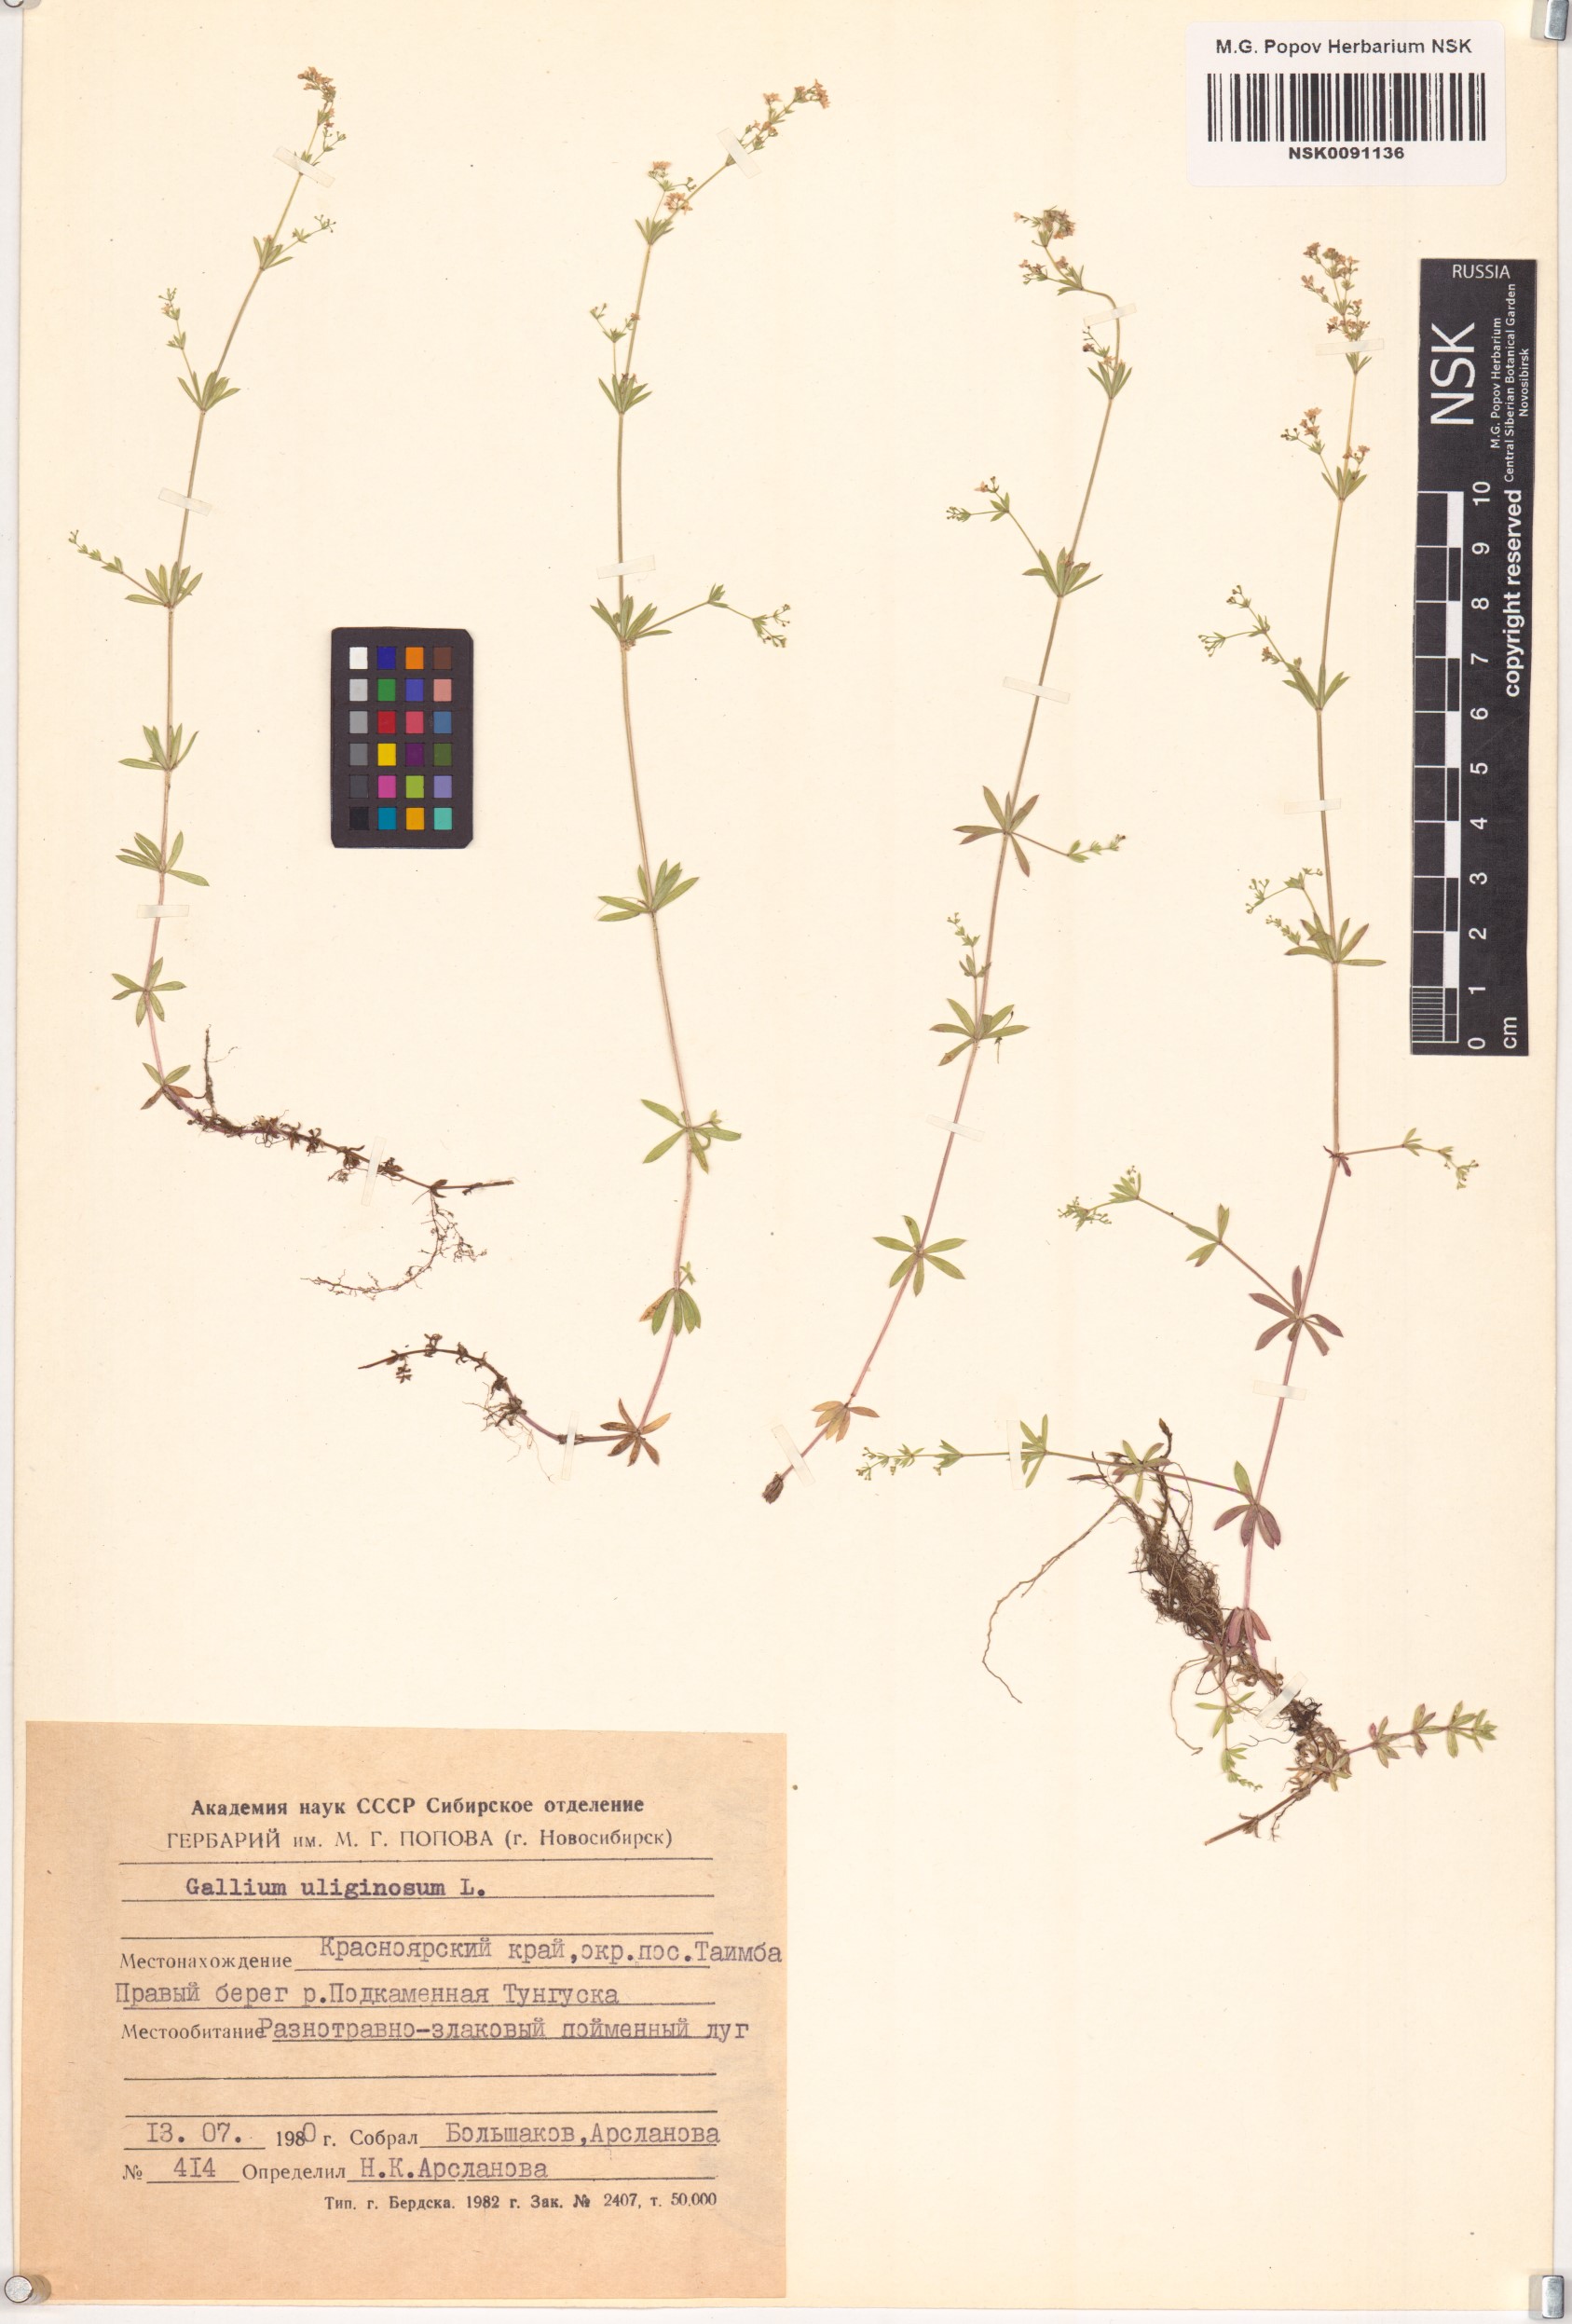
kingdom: Plantae
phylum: Tracheophyta
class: Magnoliopsida
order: Gentianales
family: Rubiaceae
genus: Galium
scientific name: Galium uliginosum
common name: Fen bedstraw
